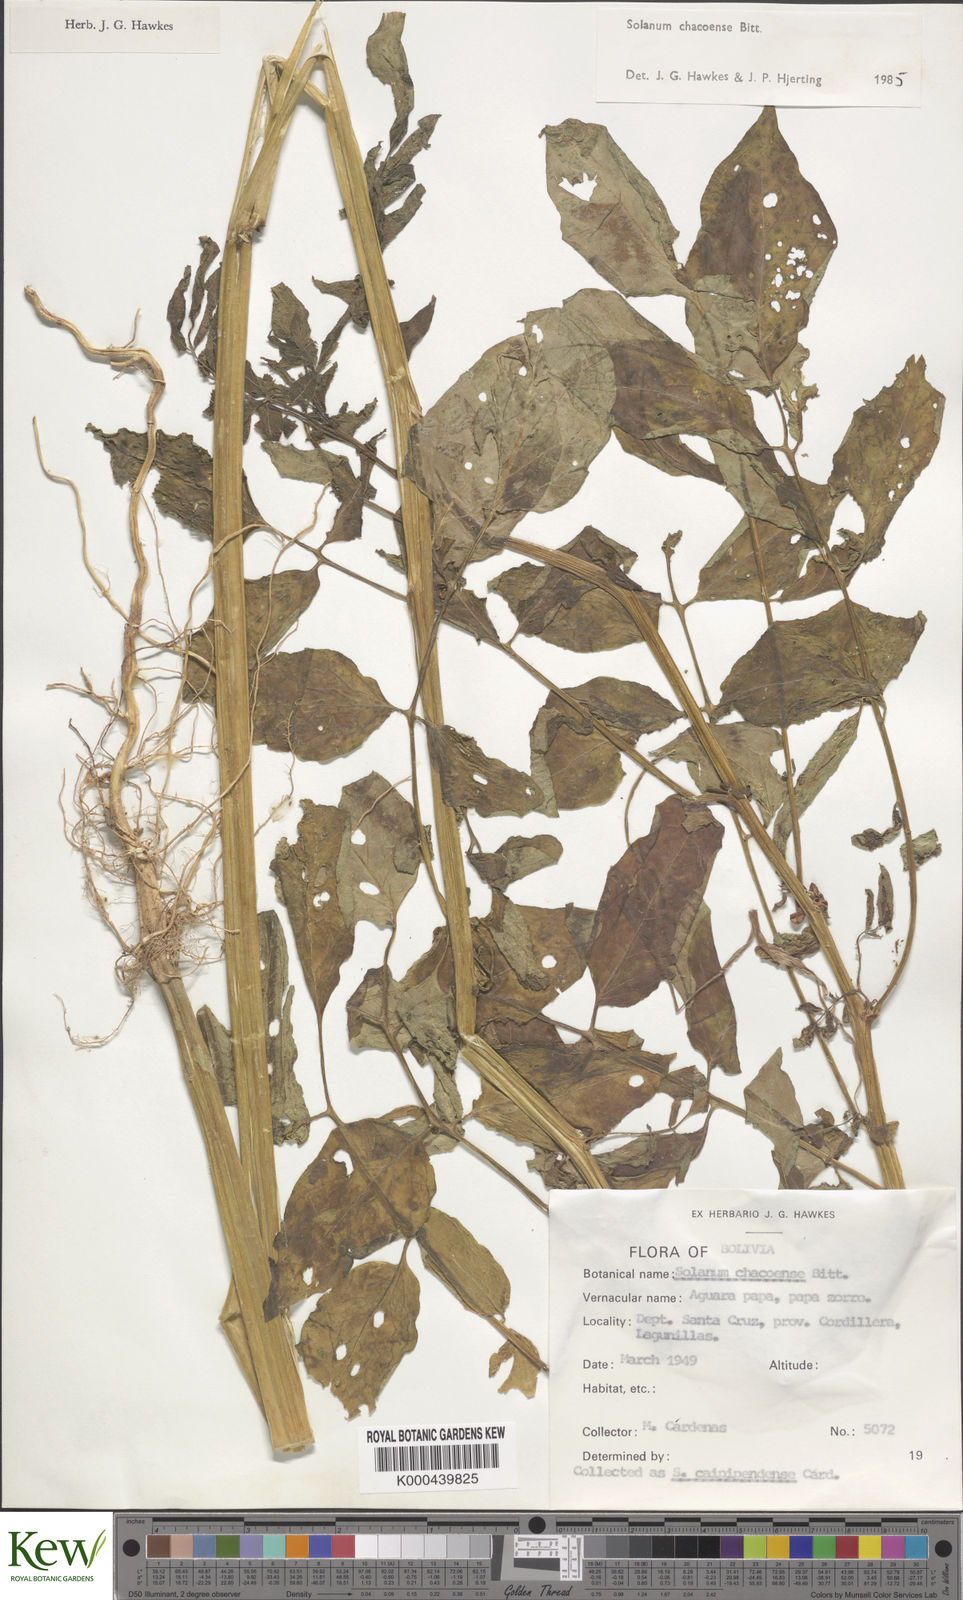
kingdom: Plantae
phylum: Tracheophyta
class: Magnoliopsida
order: Solanales
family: Solanaceae
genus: Solanum
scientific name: Solanum chacoense
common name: Chaco potato
